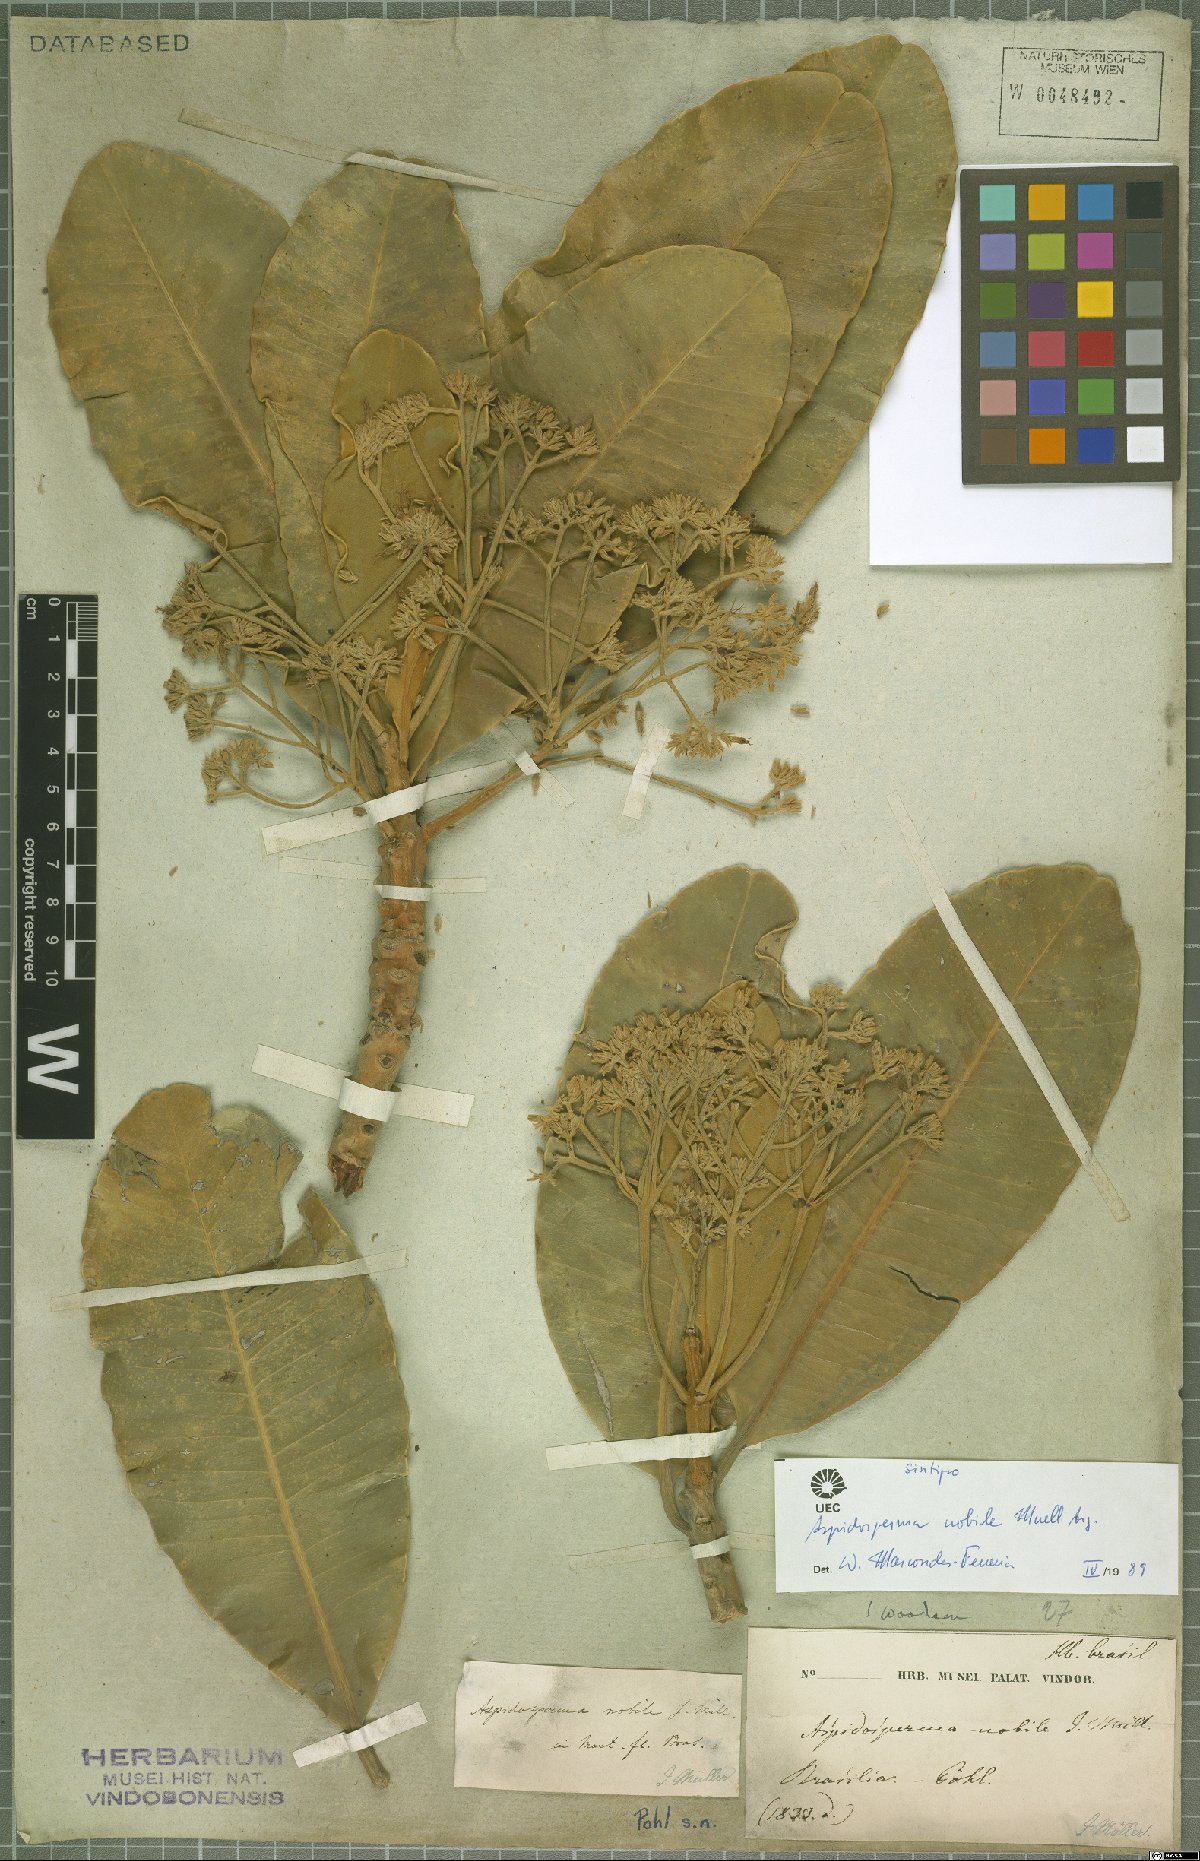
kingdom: Plantae
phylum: Tracheophyta
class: Magnoliopsida
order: Gentianales
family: Apocynaceae
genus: Aspidosperma
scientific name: Aspidosperma nobile
